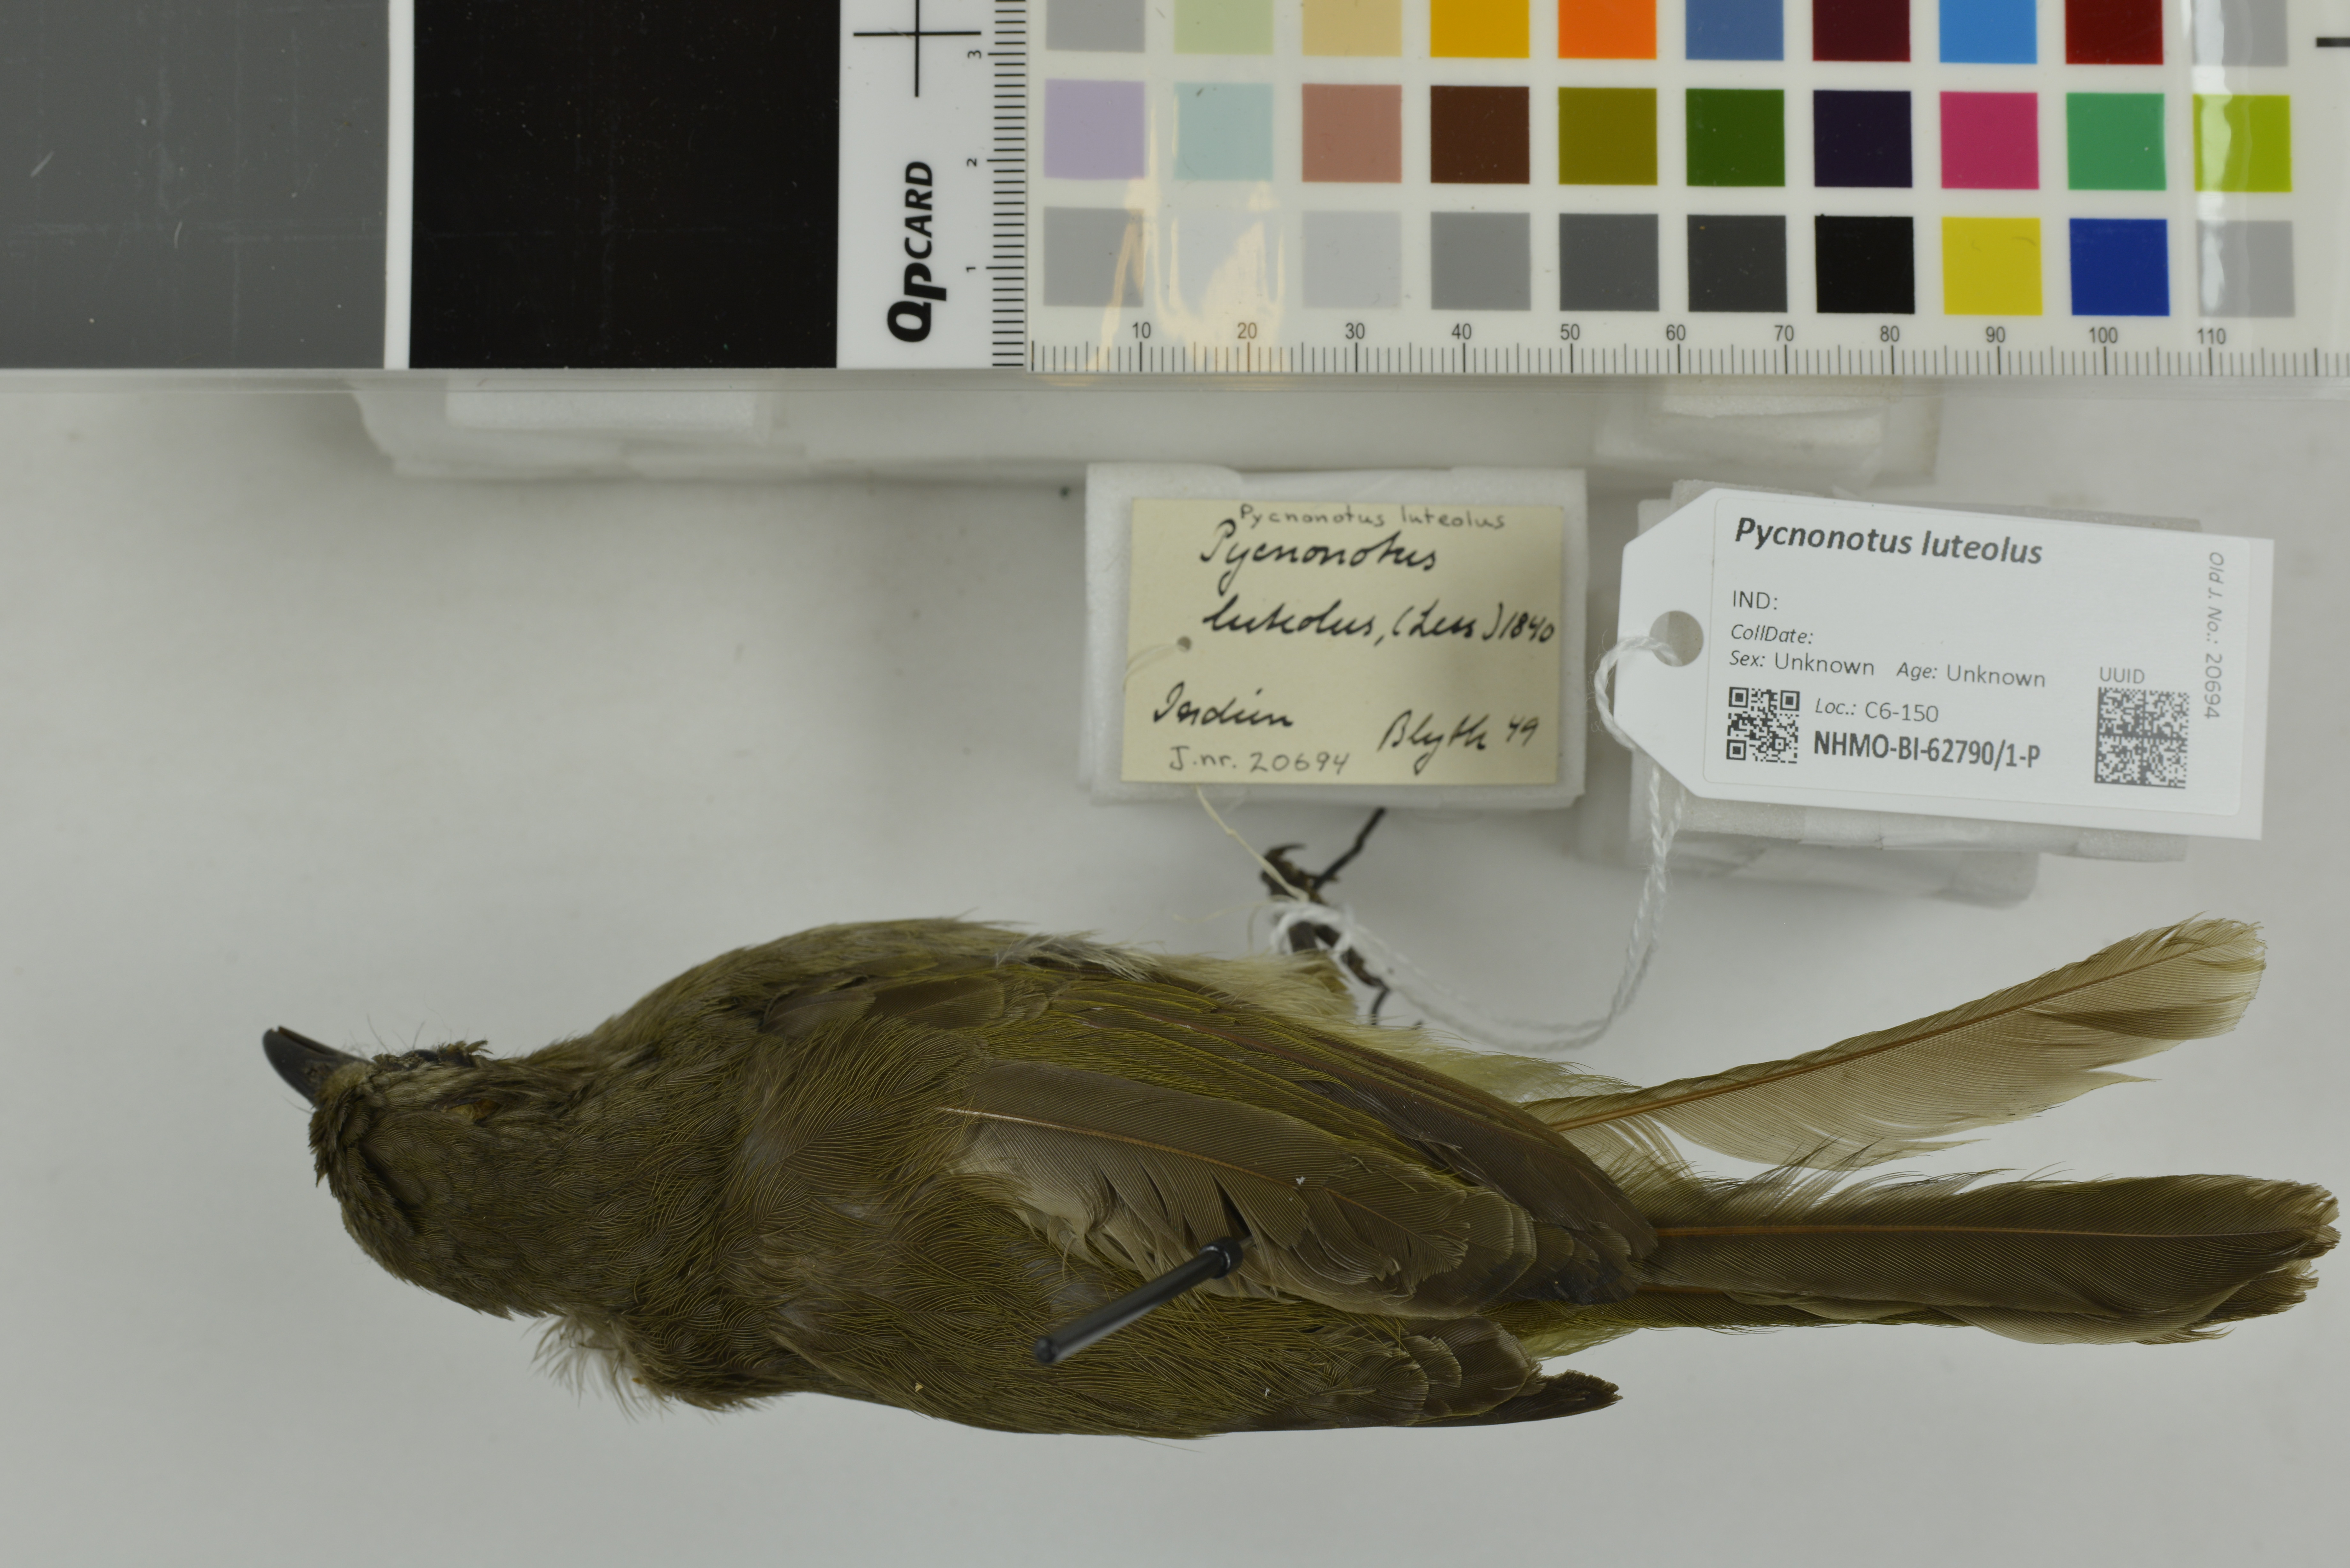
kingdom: Animalia
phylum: Chordata
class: Aves
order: Passeriformes
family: Pycnonotidae
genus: Pycnonotus
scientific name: Pycnonotus luteolus
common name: White-browed bulbul
